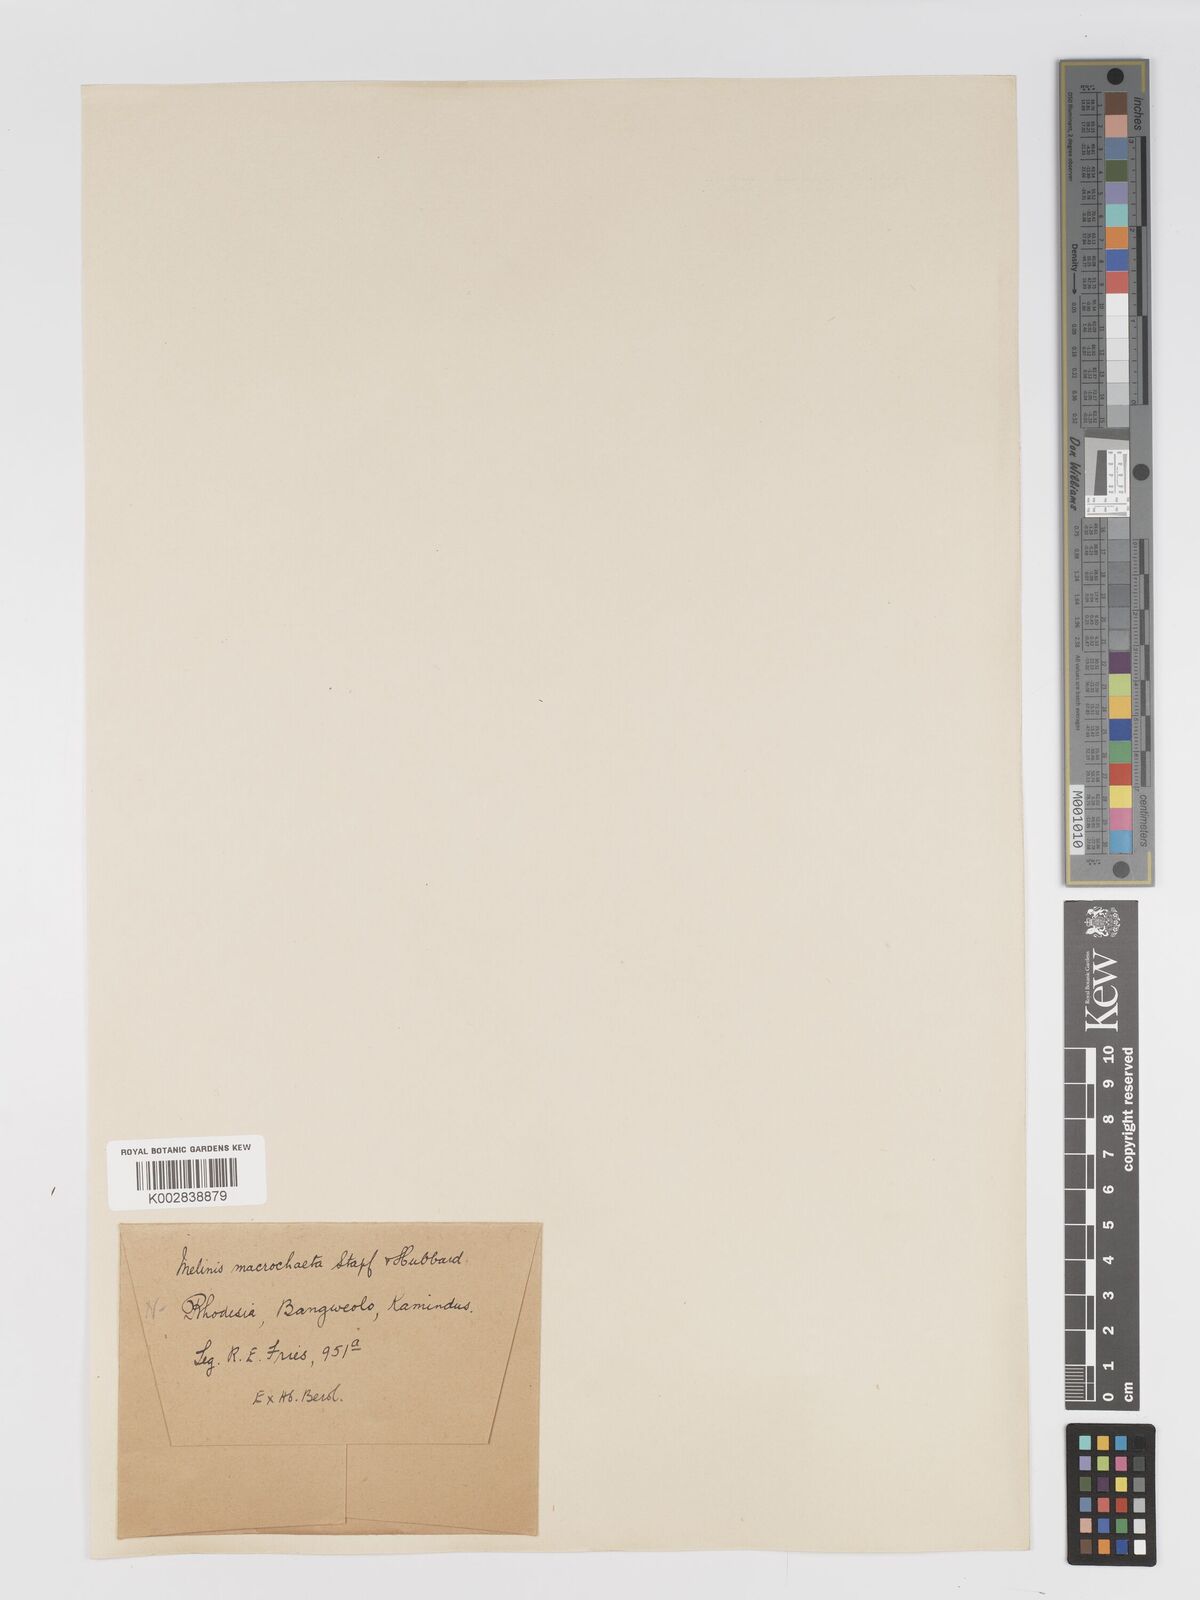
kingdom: Plantae
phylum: Tracheophyta
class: Liliopsida
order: Poales
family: Poaceae
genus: Melinis
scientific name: Melinis macrochaeta
